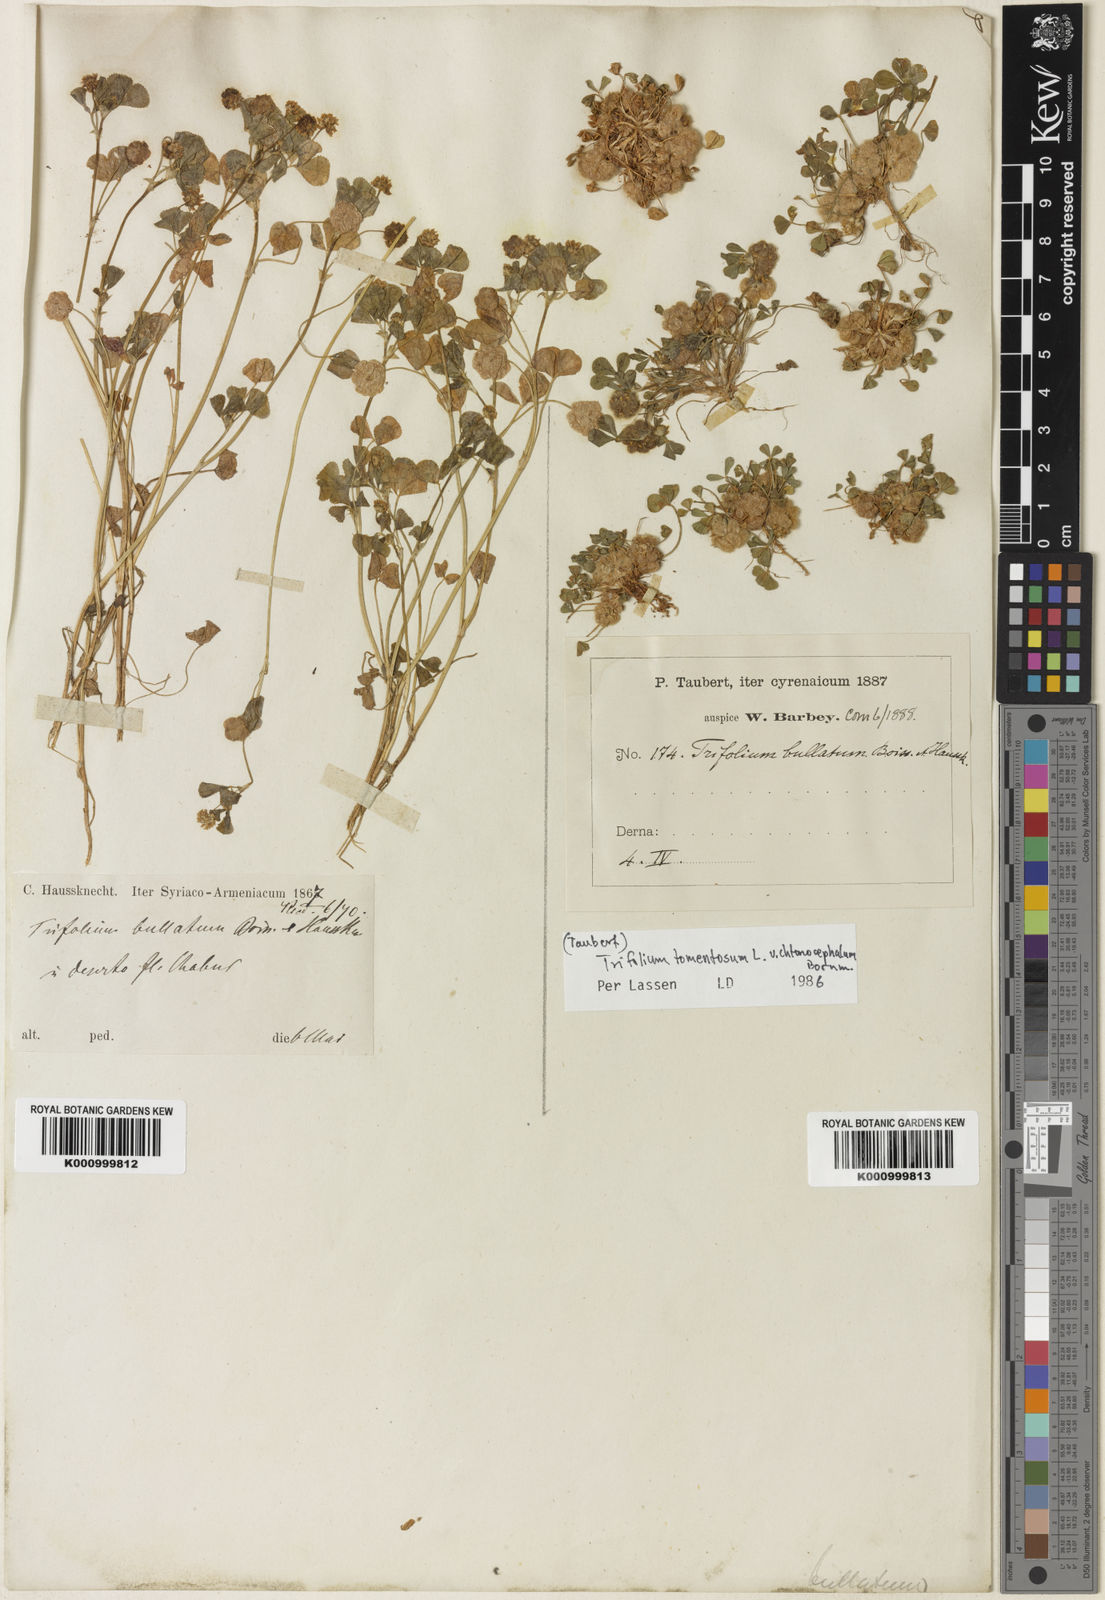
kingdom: Plantae
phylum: Tracheophyta
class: Magnoliopsida
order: Fabales
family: Fabaceae
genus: Trifolium
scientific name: Trifolium tomentosum
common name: Woolly clover
